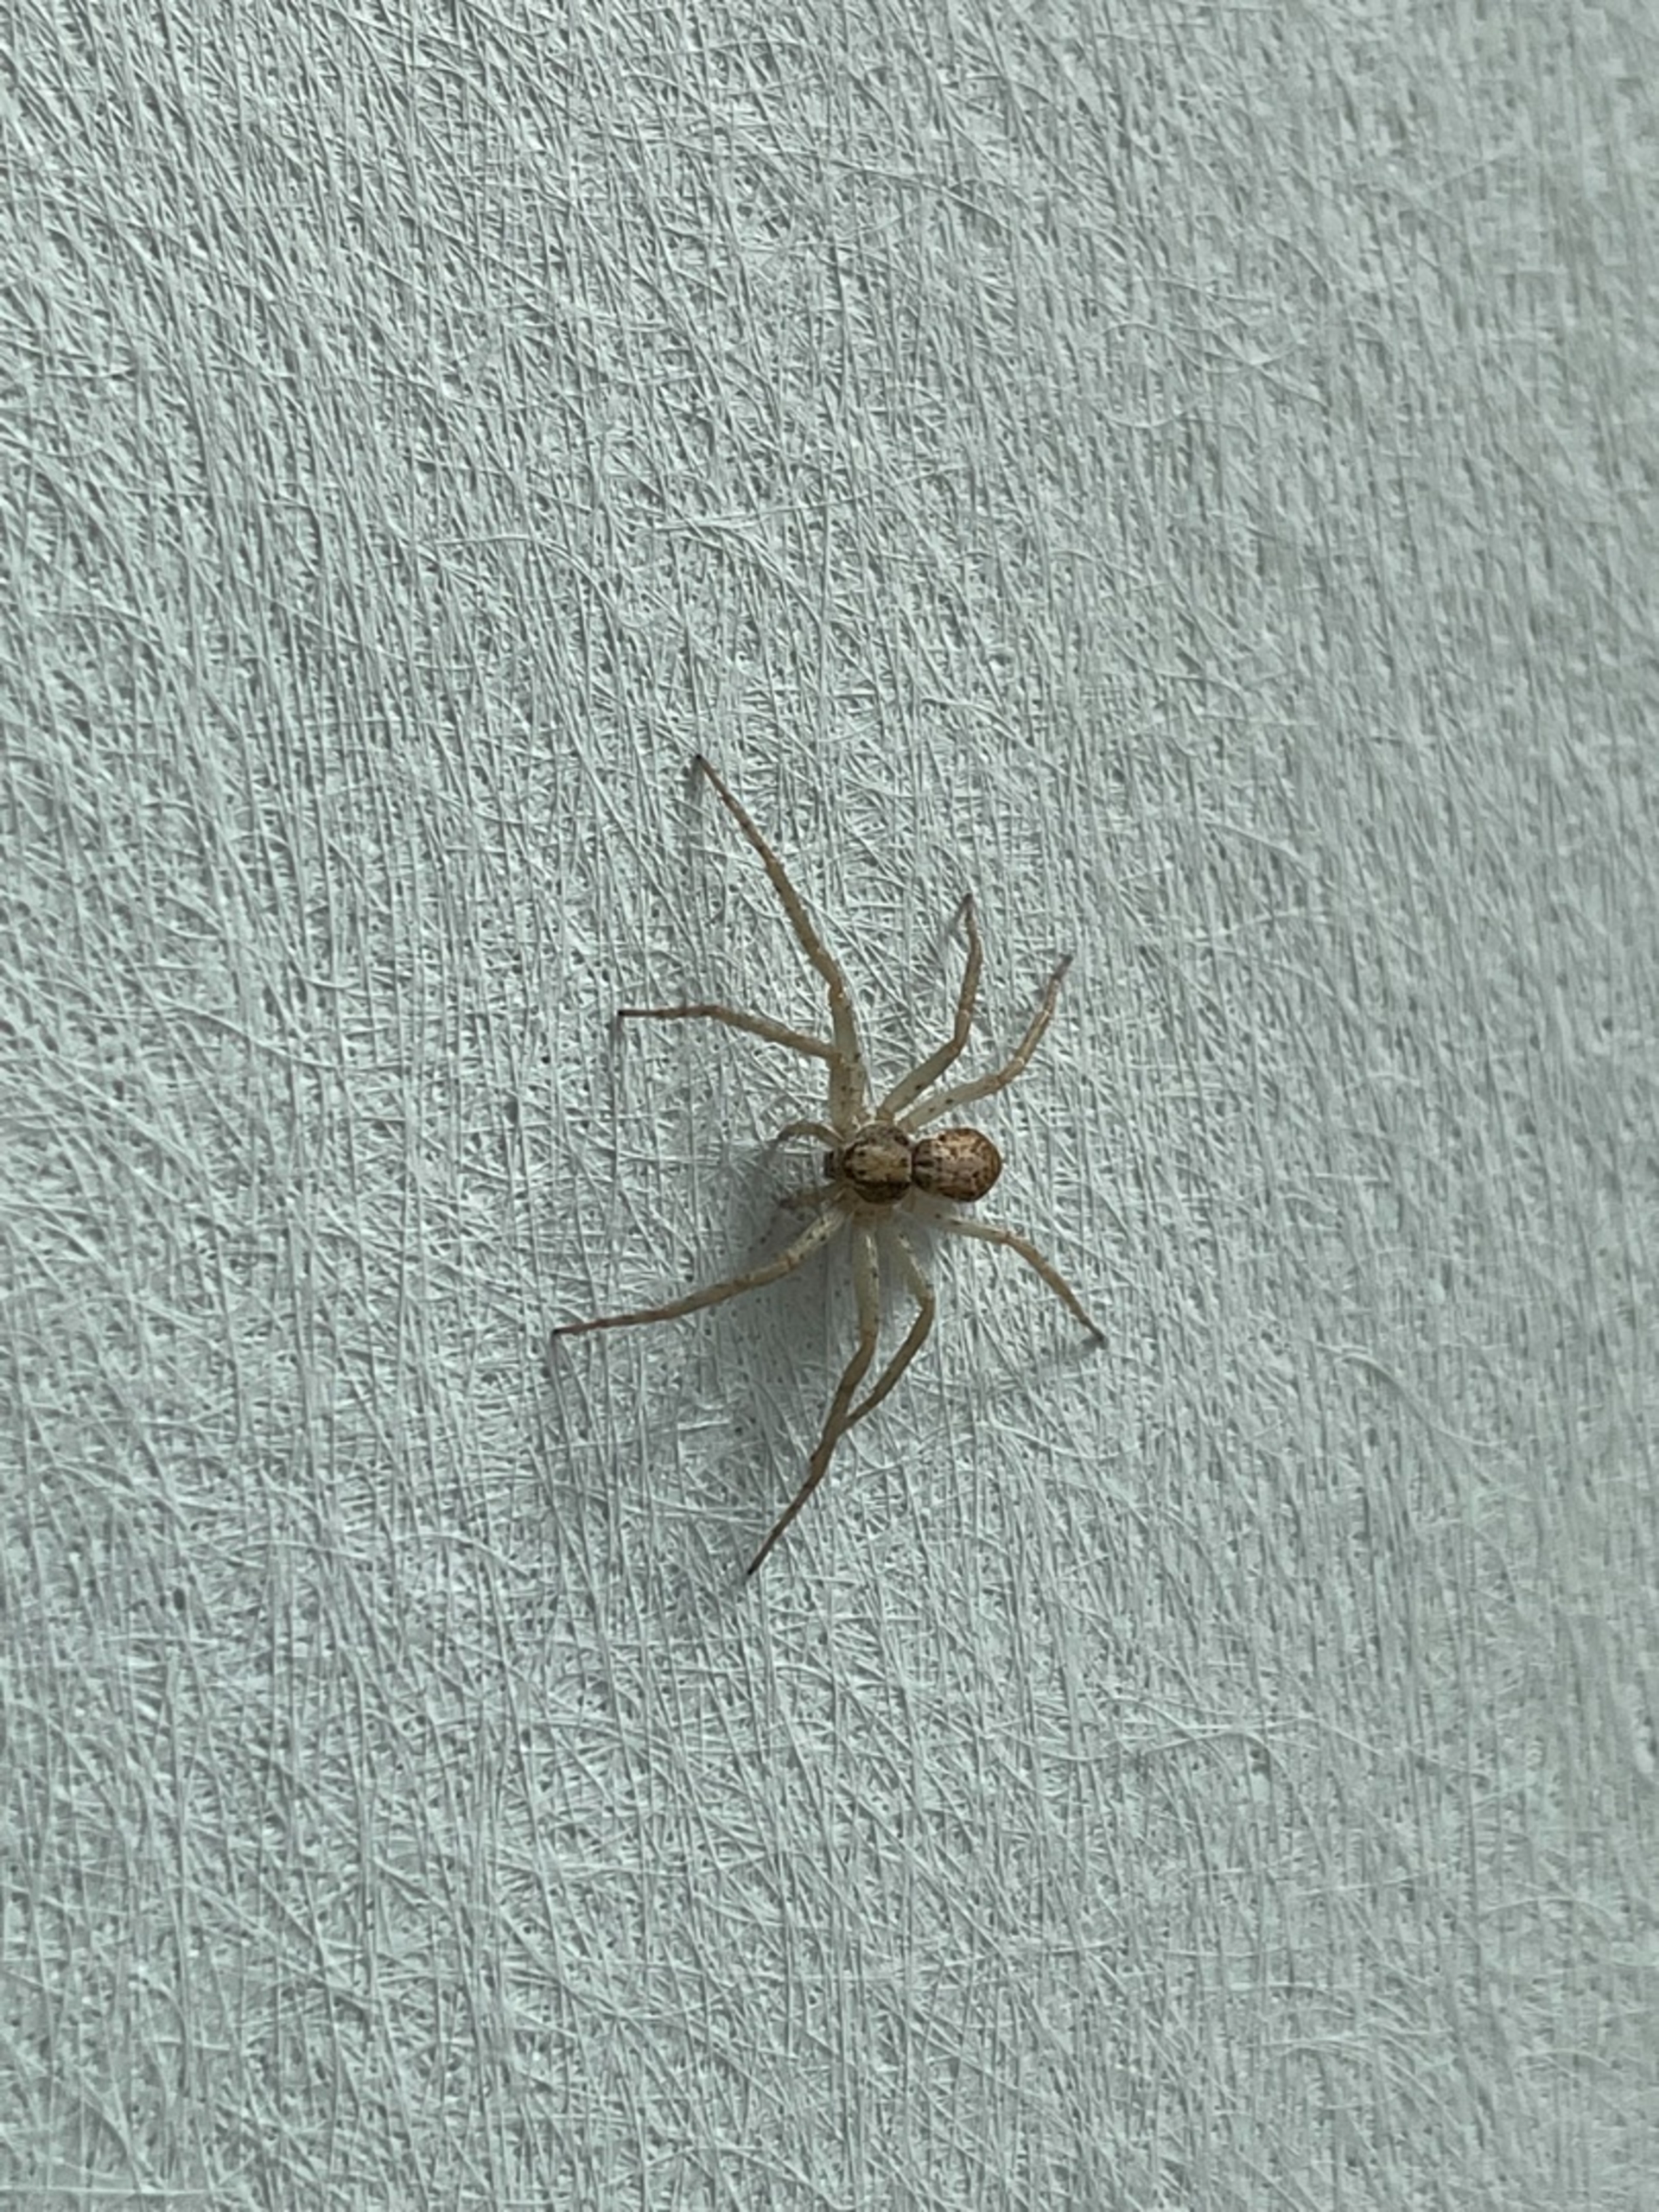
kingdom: Animalia
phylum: Arthropoda
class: Arachnida
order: Araneae
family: Philodromidae
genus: Philodromus
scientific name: Philodromus dispar
